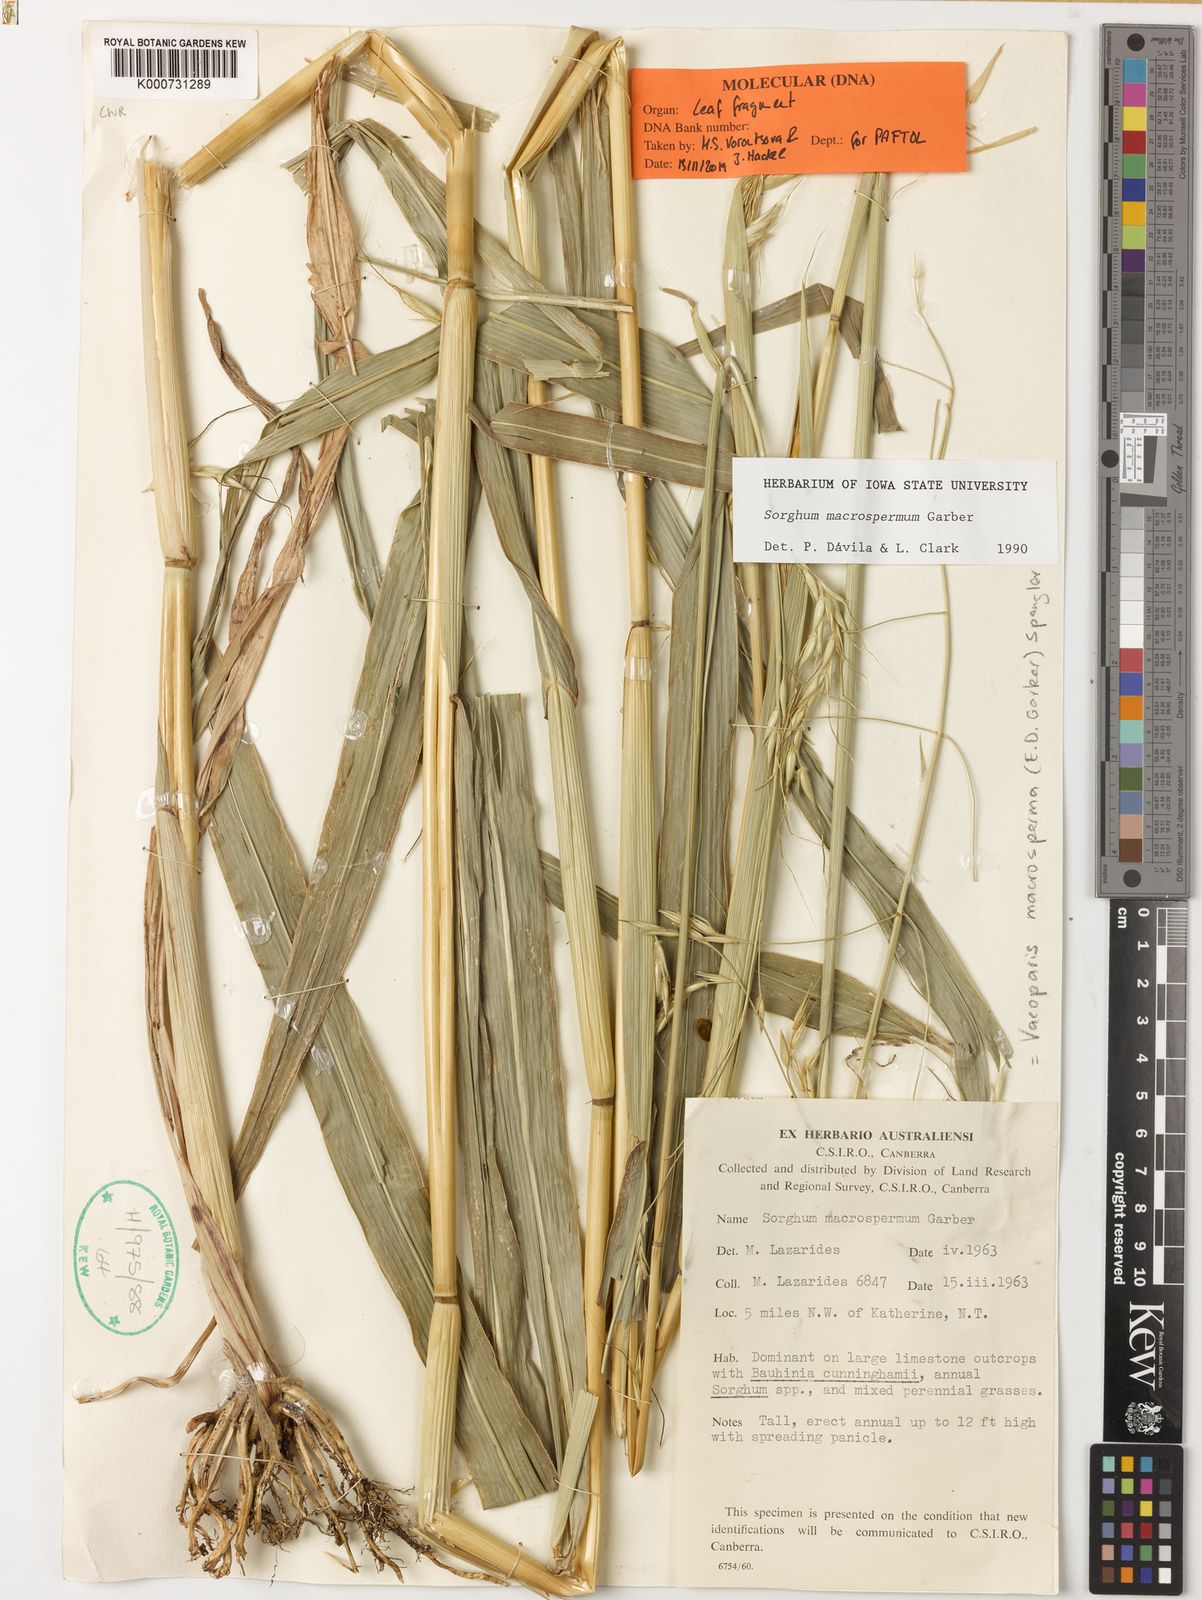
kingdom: Plantae
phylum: Tracheophyta
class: Liliopsida
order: Poales
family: Poaceae
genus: Sorghum
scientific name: Sorghum macrospermum
